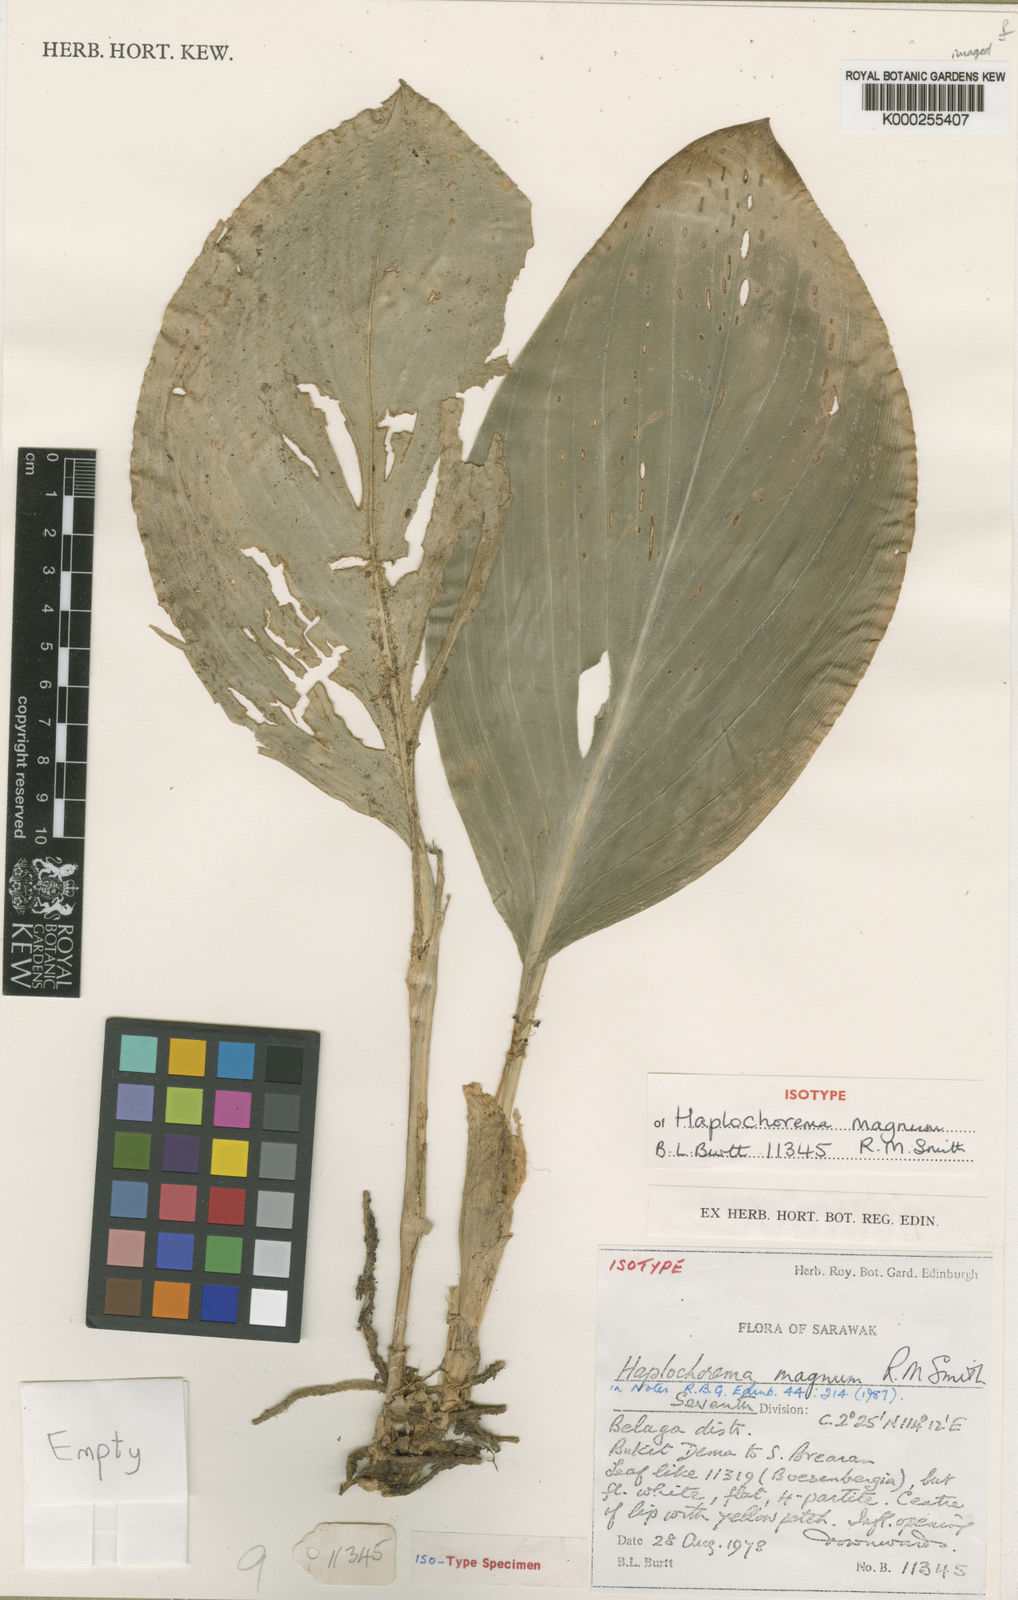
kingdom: Plantae
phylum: Tracheophyta
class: Liliopsida
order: Zingiberales
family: Zingiberaceae
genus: Boesenbergia
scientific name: Boesenbergia magna
